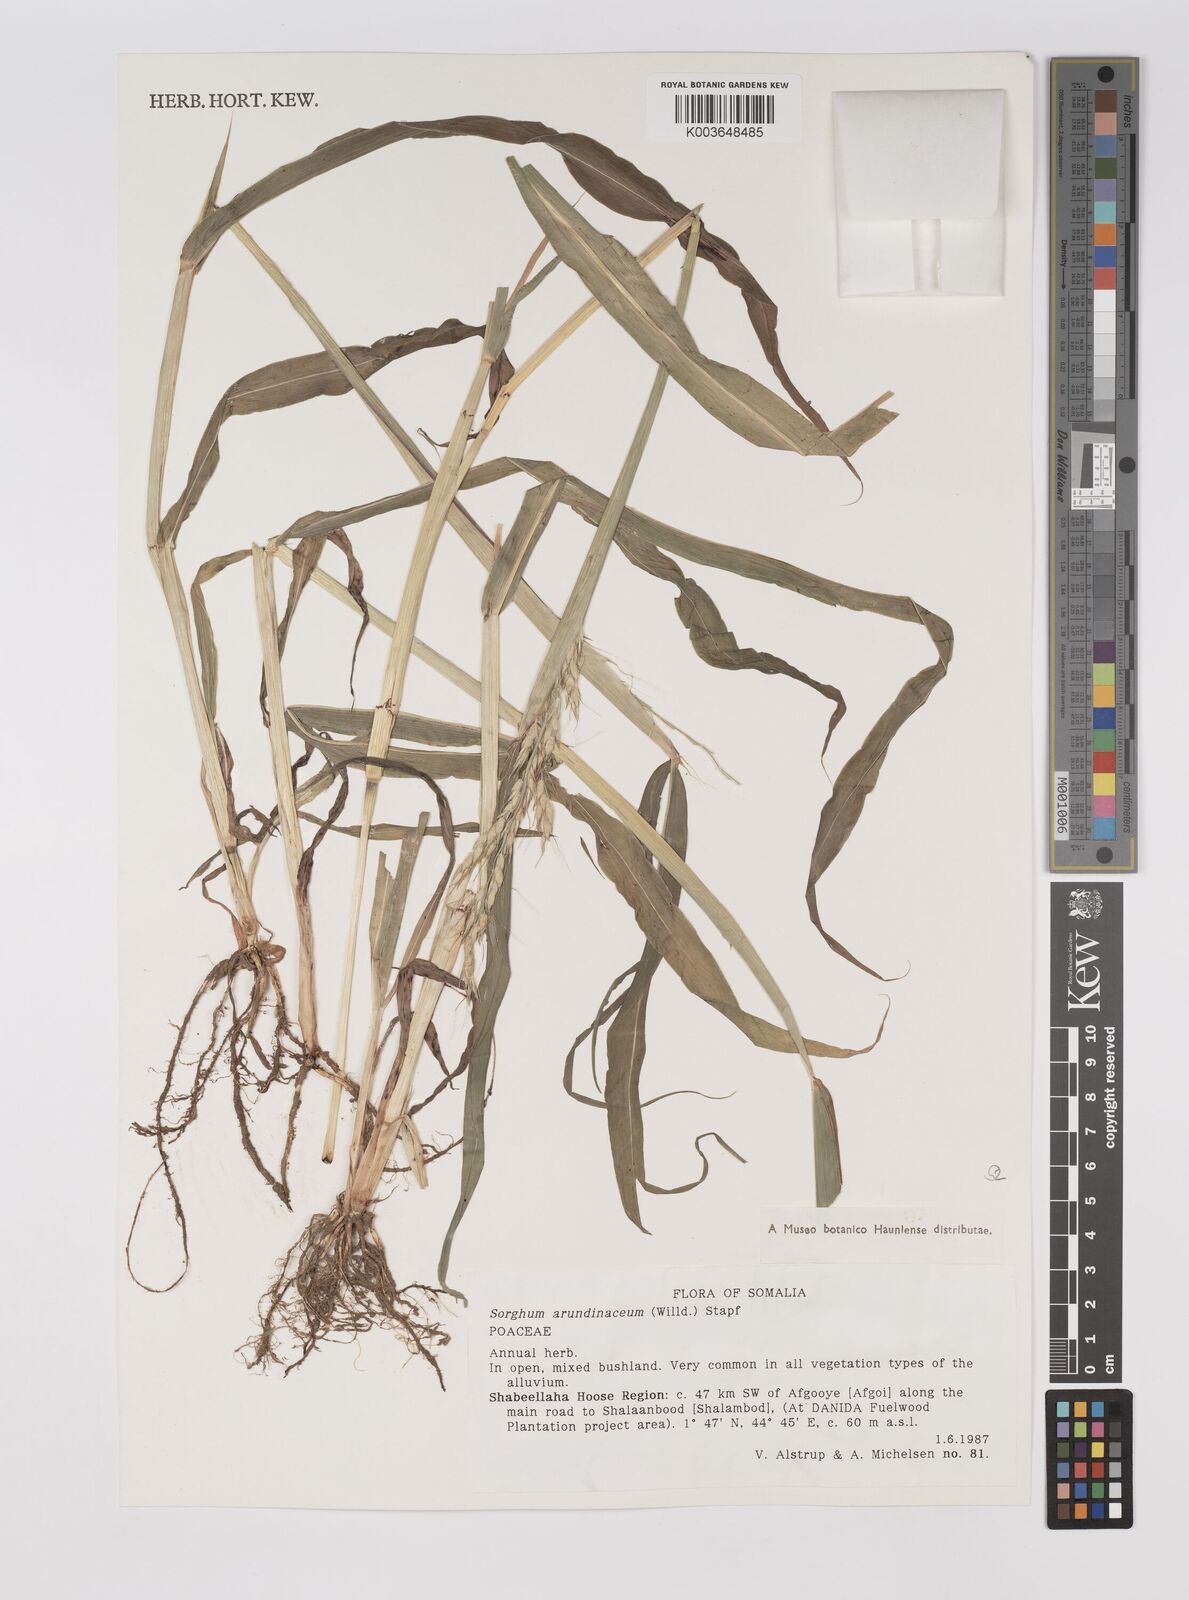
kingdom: Plantae
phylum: Tracheophyta
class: Liliopsida
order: Poales
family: Poaceae
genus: Sorghum
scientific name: Sorghum arundinaceum
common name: Sorghum
